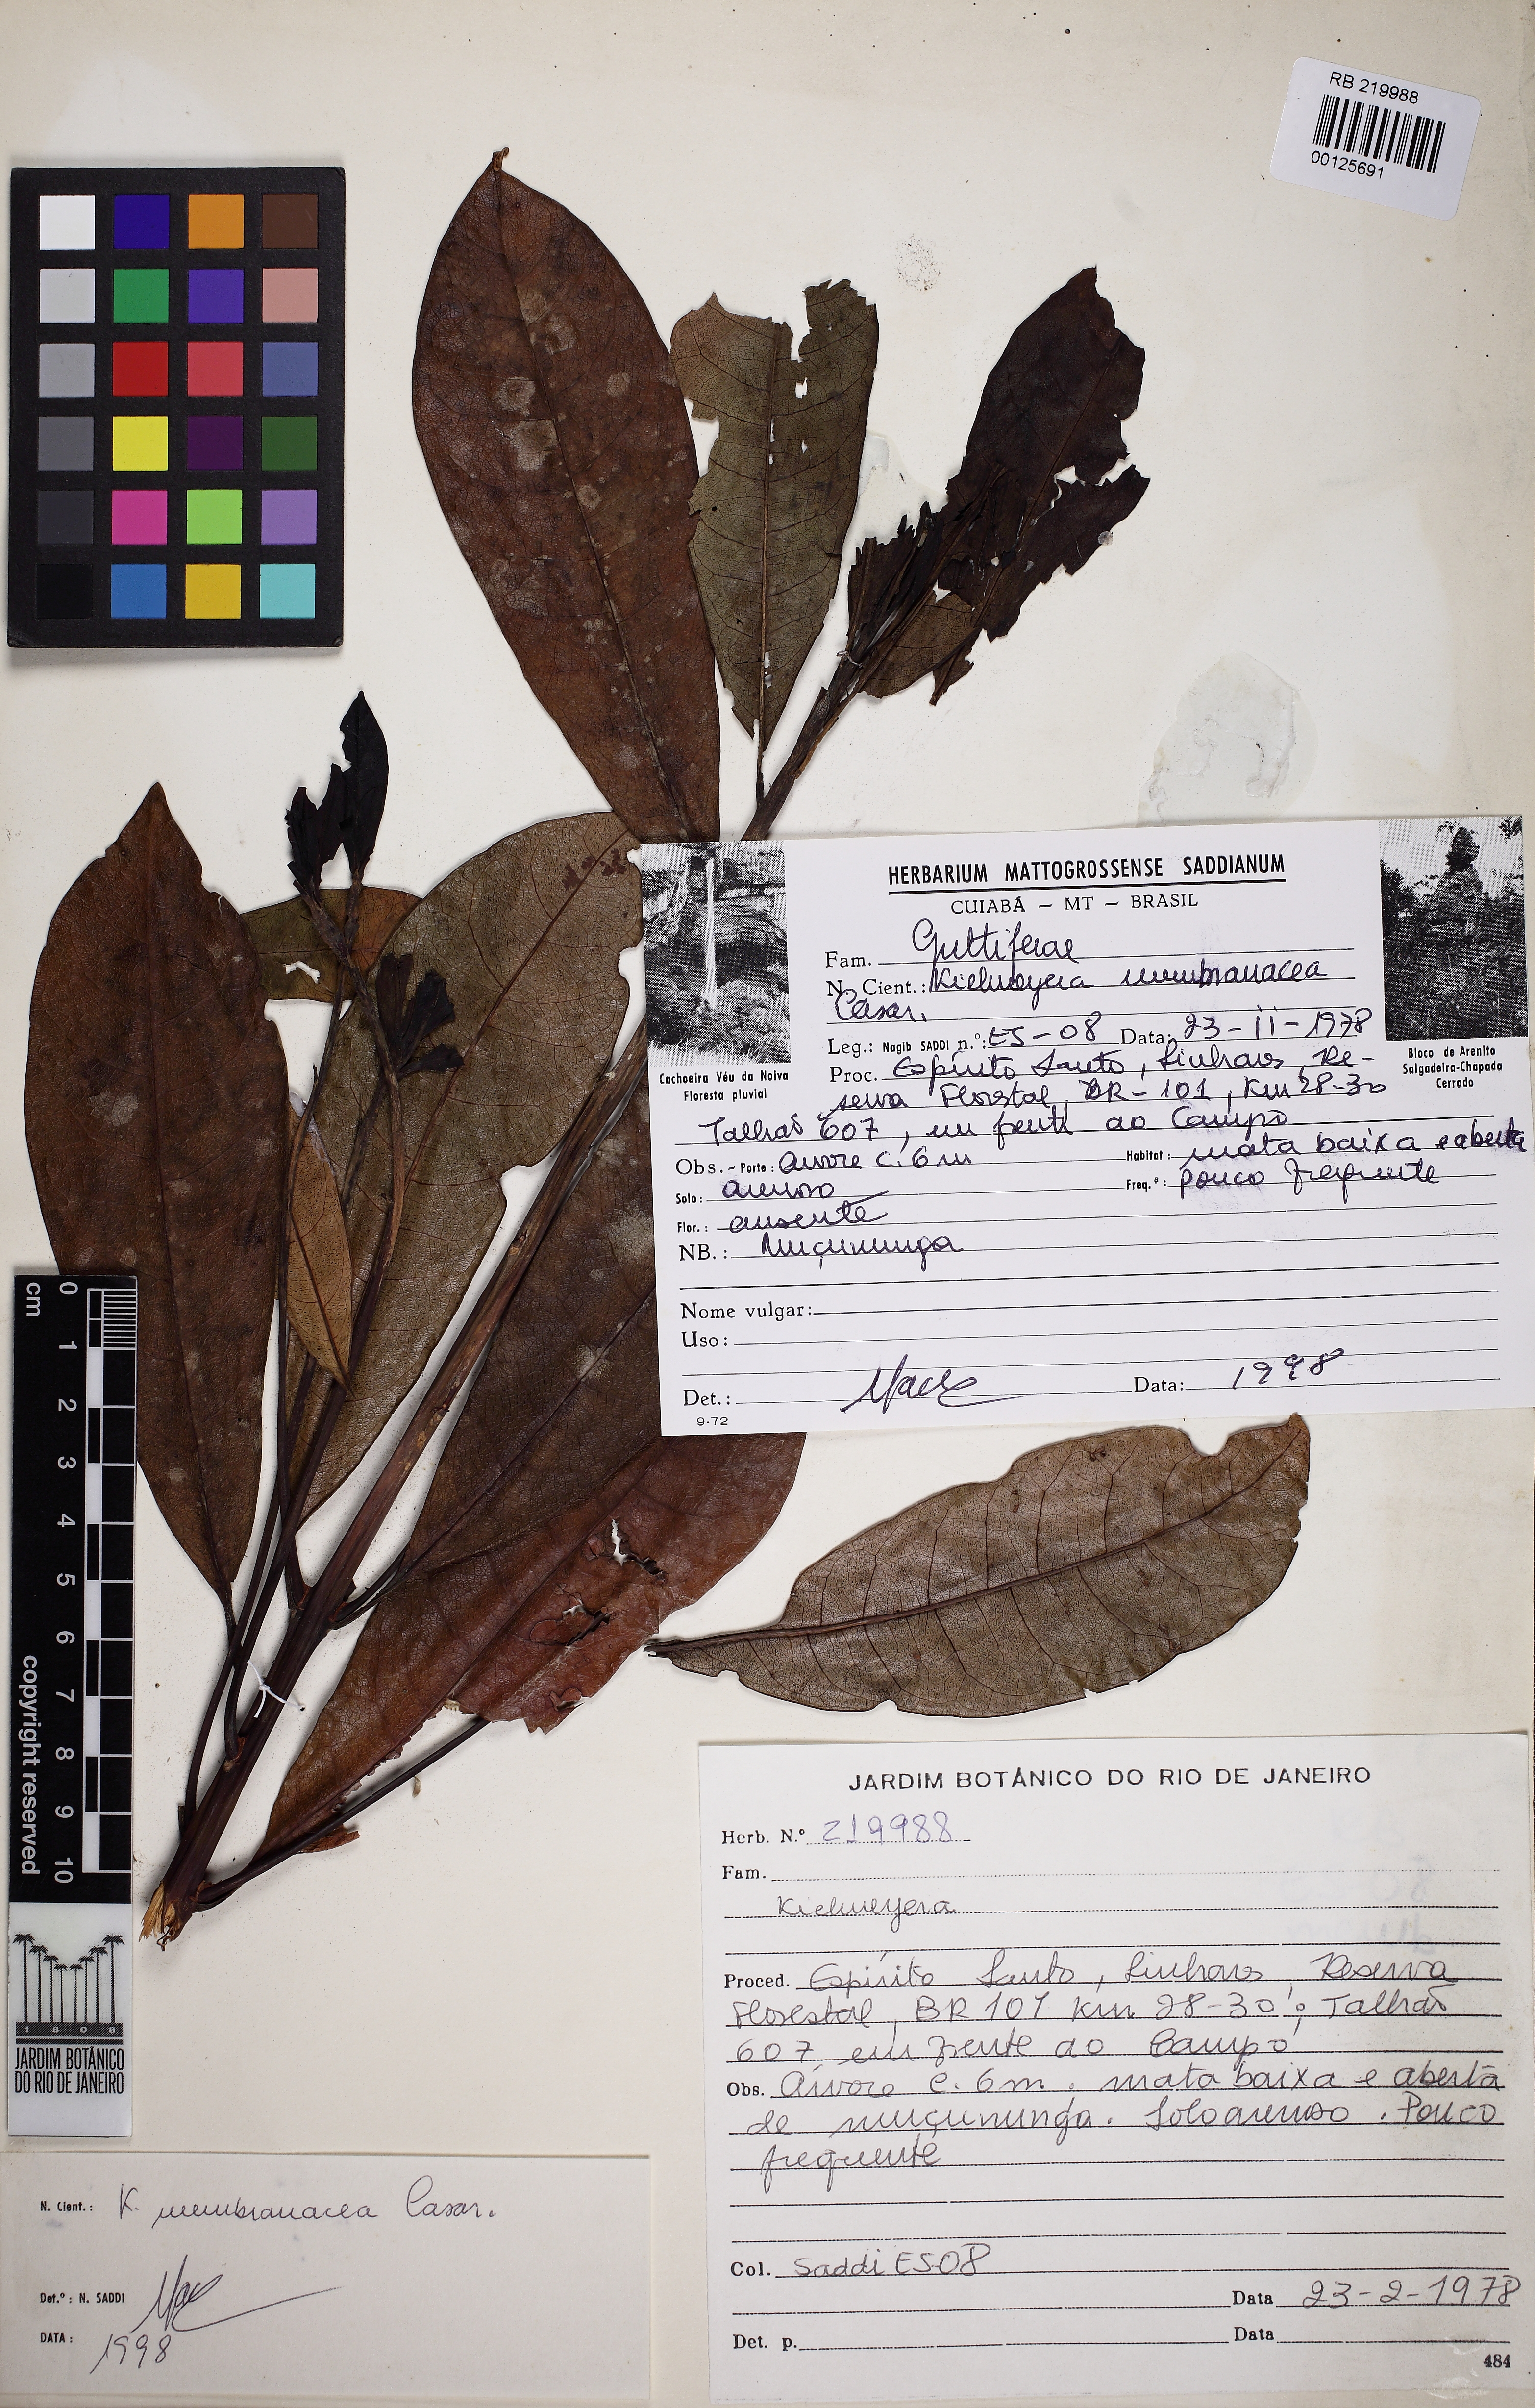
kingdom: Plantae
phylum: Tracheophyta
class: Magnoliopsida
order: Malpighiales
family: Calophyllaceae
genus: Kielmeyera
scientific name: Kielmeyera membranacea
